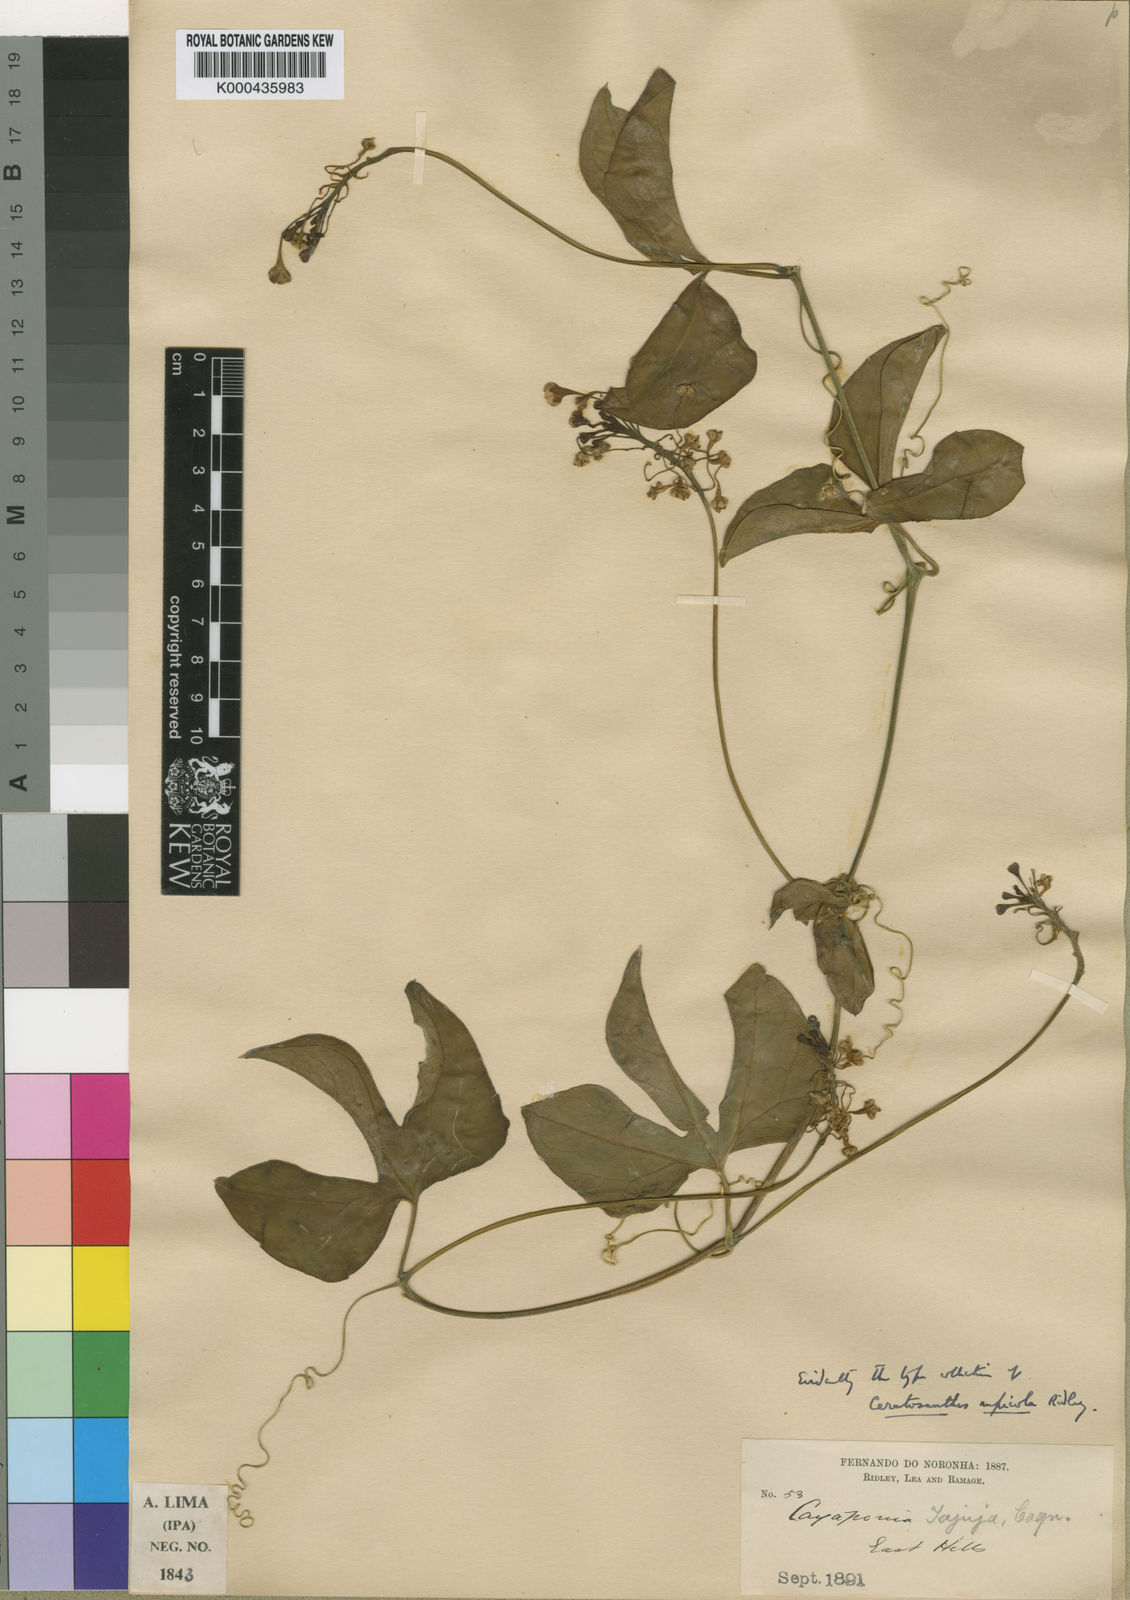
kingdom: Plantae
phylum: Tracheophyta
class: Magnoliopsida
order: Cucurbitales
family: Cucurbitaceae
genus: Ceratosanthes
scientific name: Ceratosanthes hilariana
